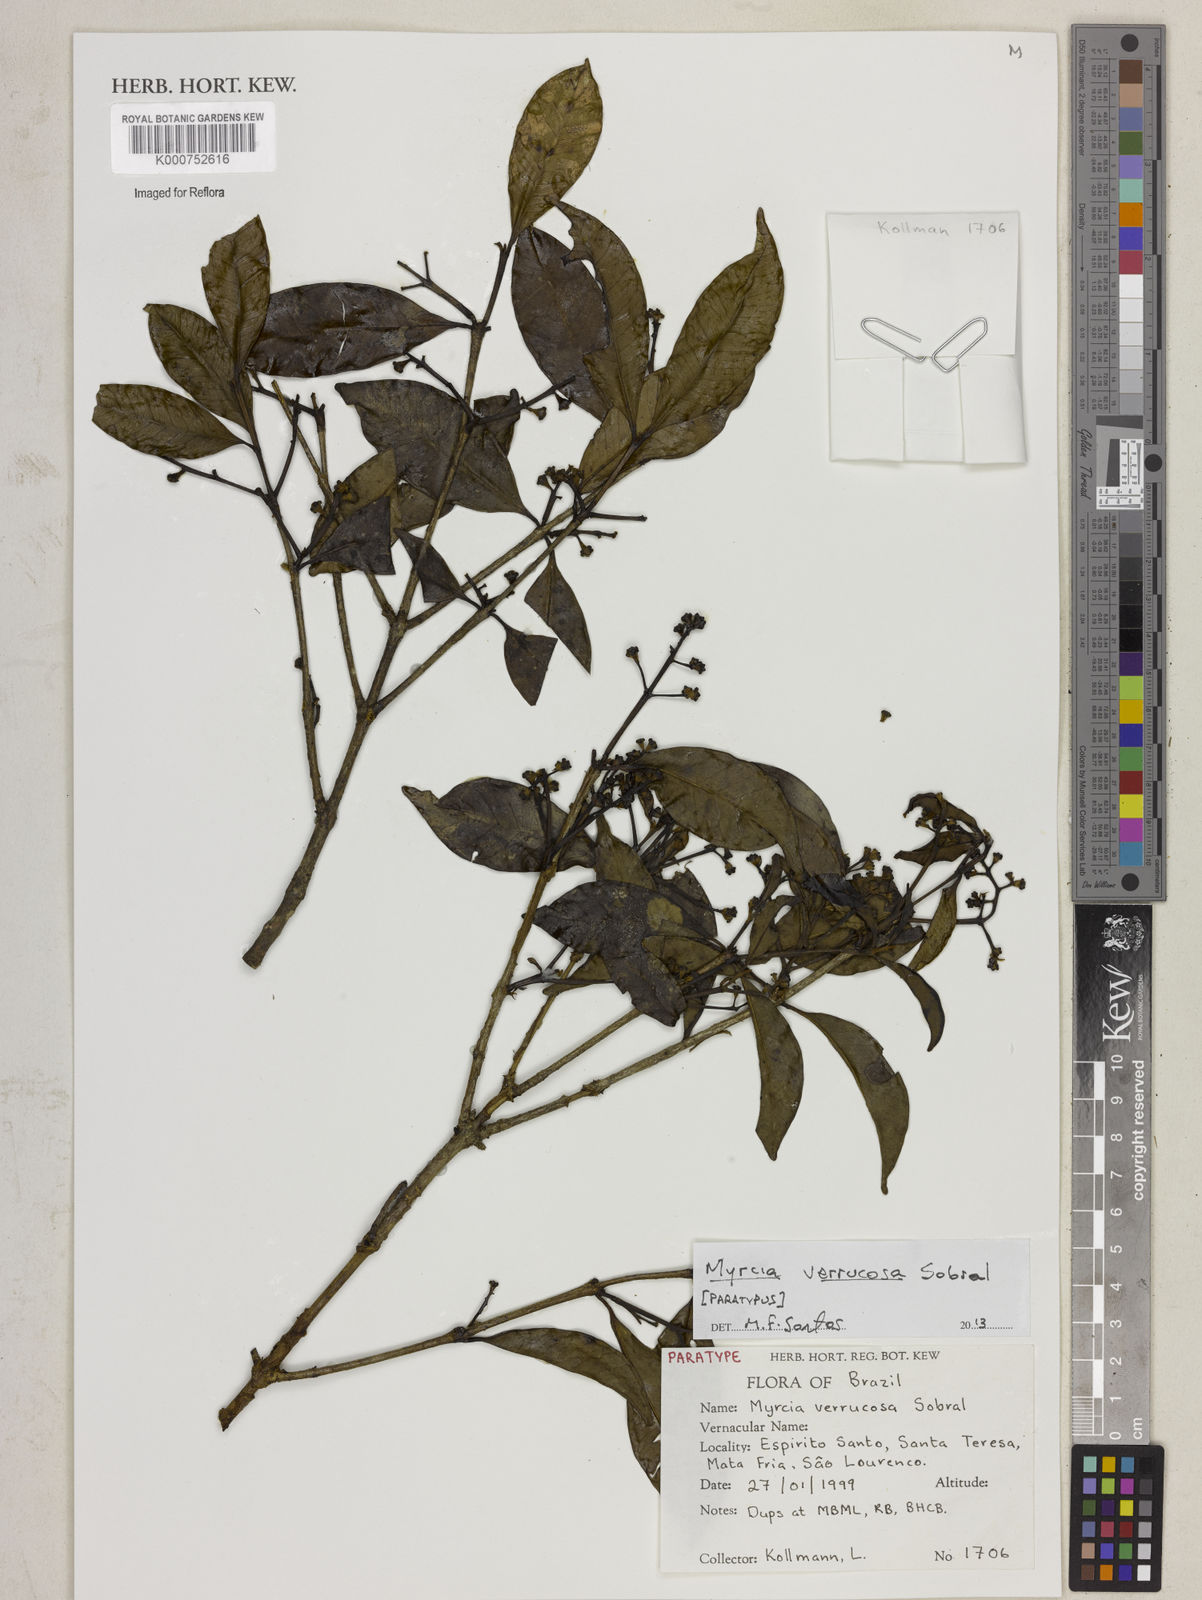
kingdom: Plantae
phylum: Tracheophyta
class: Magnoliopsida
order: Myrtales
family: Myrtaceae
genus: Myrcia
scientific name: Myrcia verrucosa
